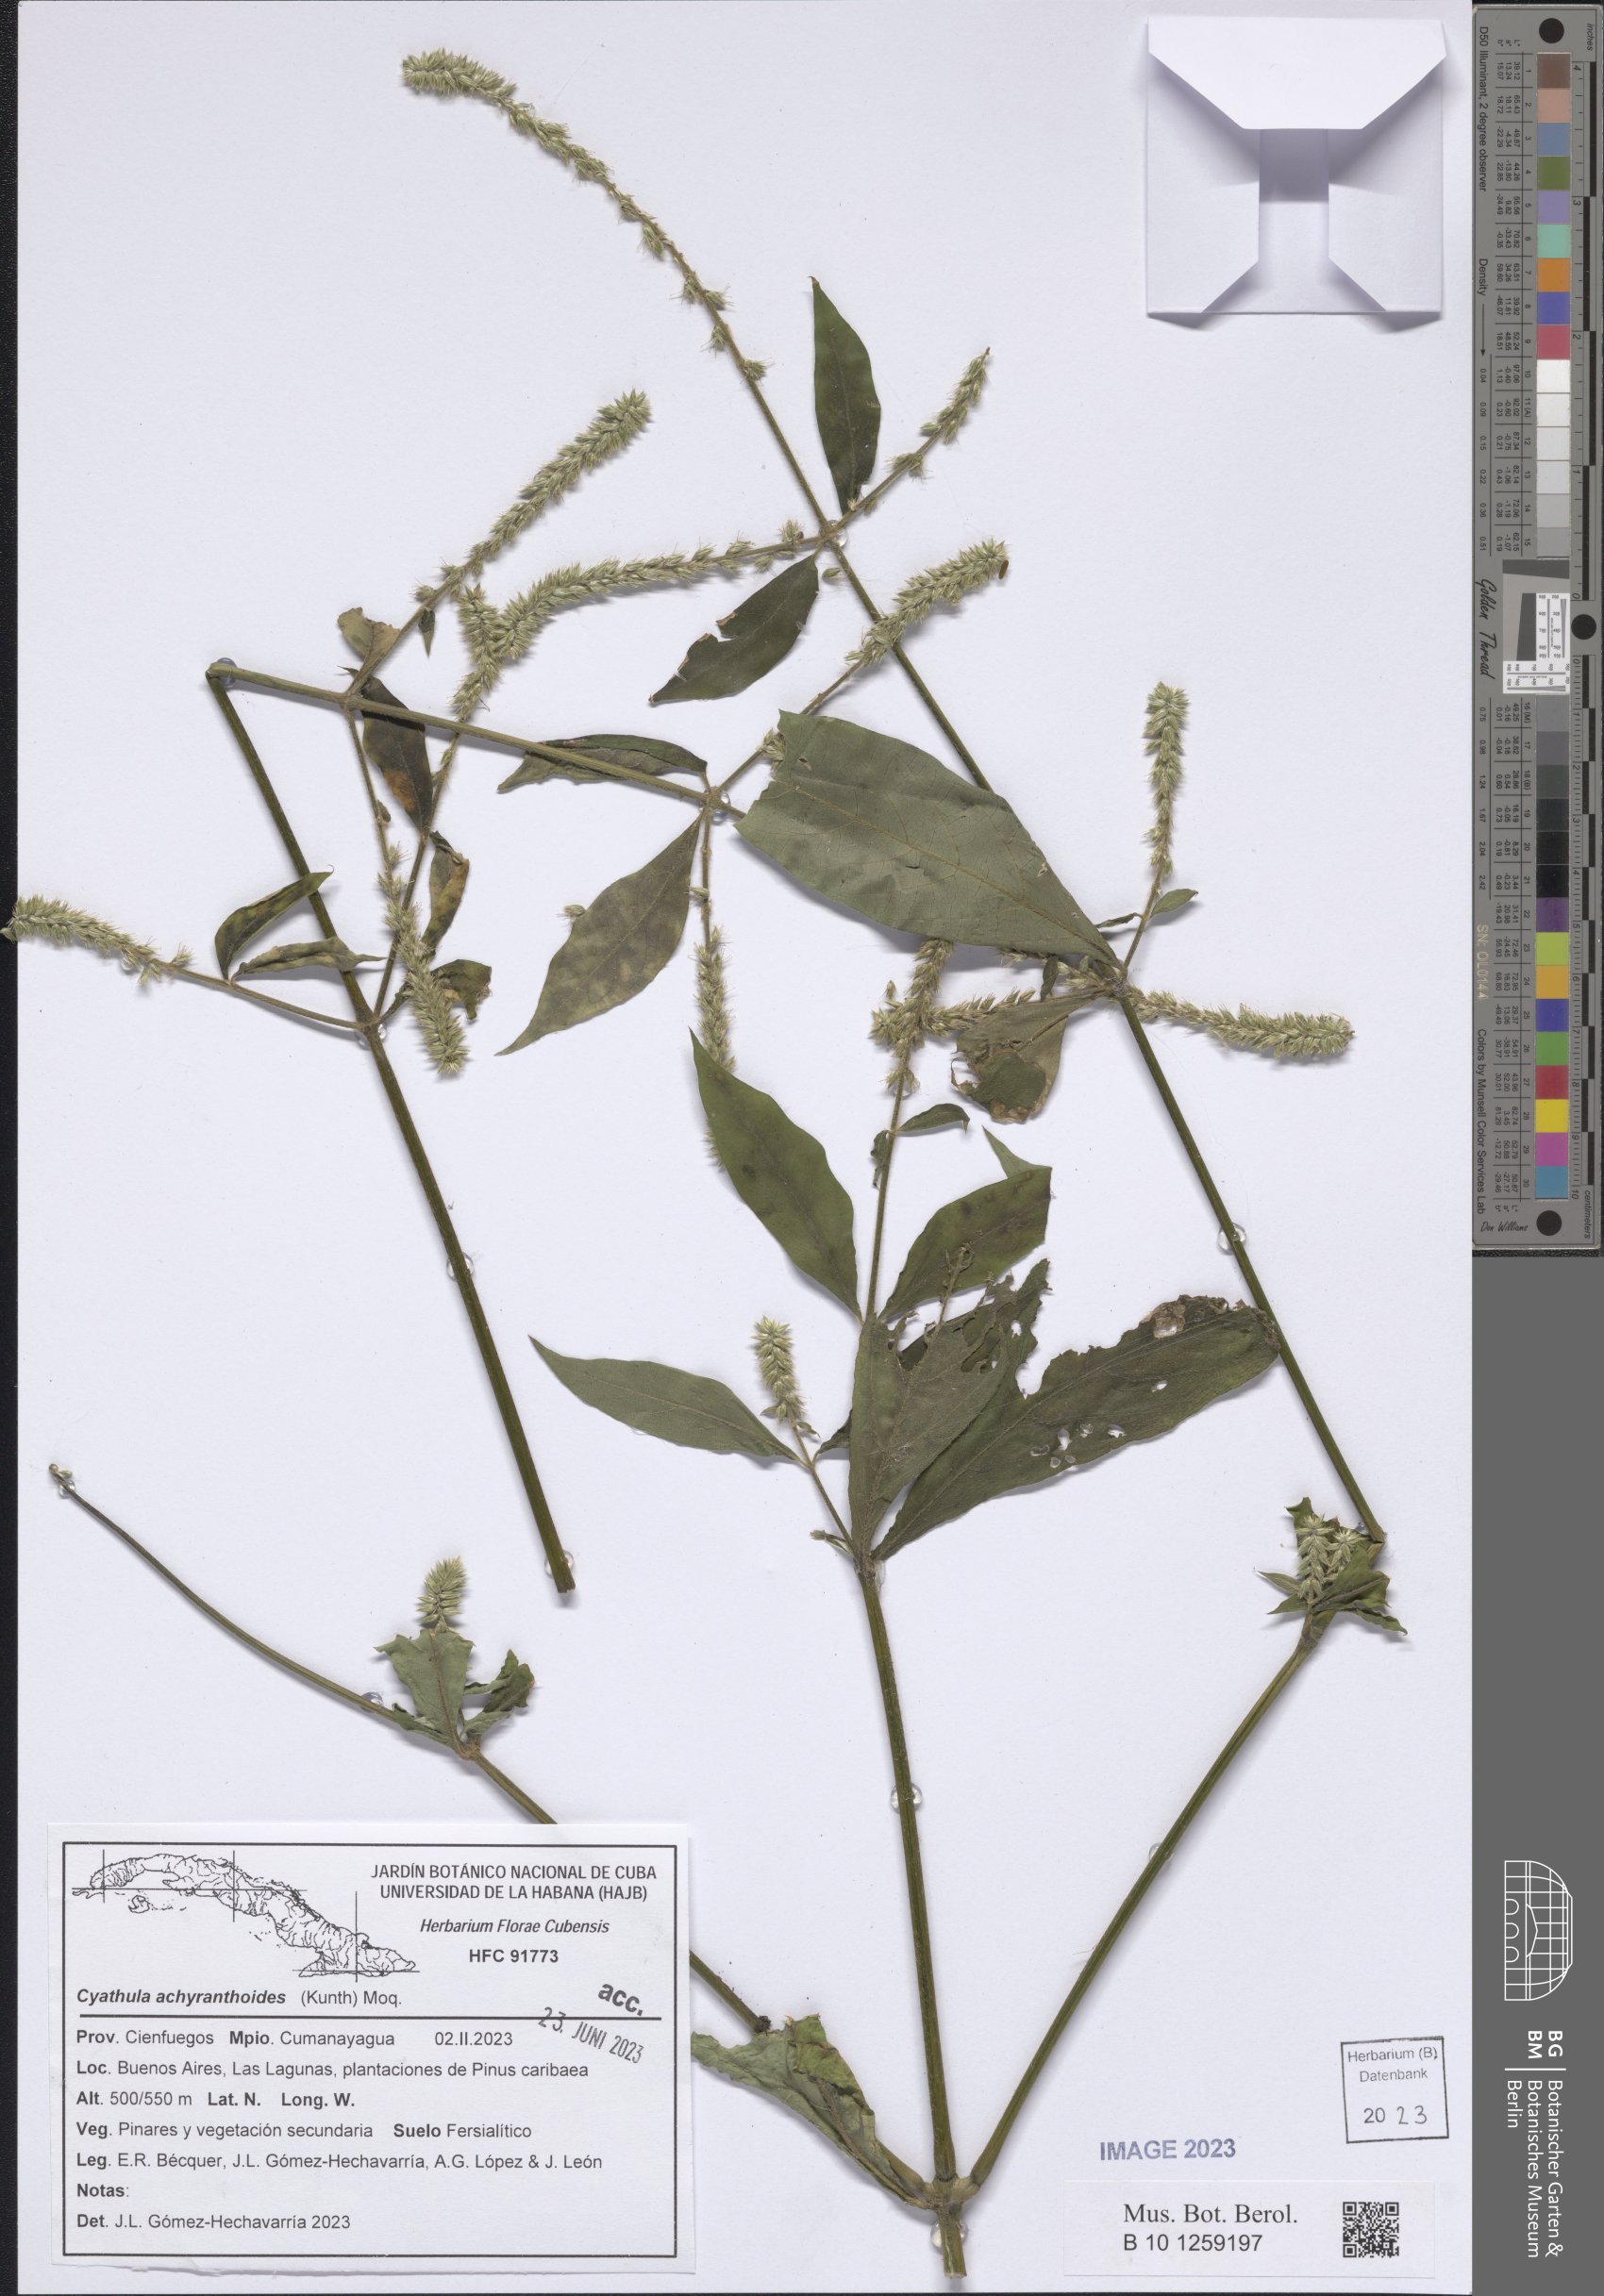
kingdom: Plantae
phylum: Tracheophyta
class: Magnoliopsida
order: Caryophyllales
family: Amaranthaceae
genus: Cyathula
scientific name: Cyathula achyranthoides
